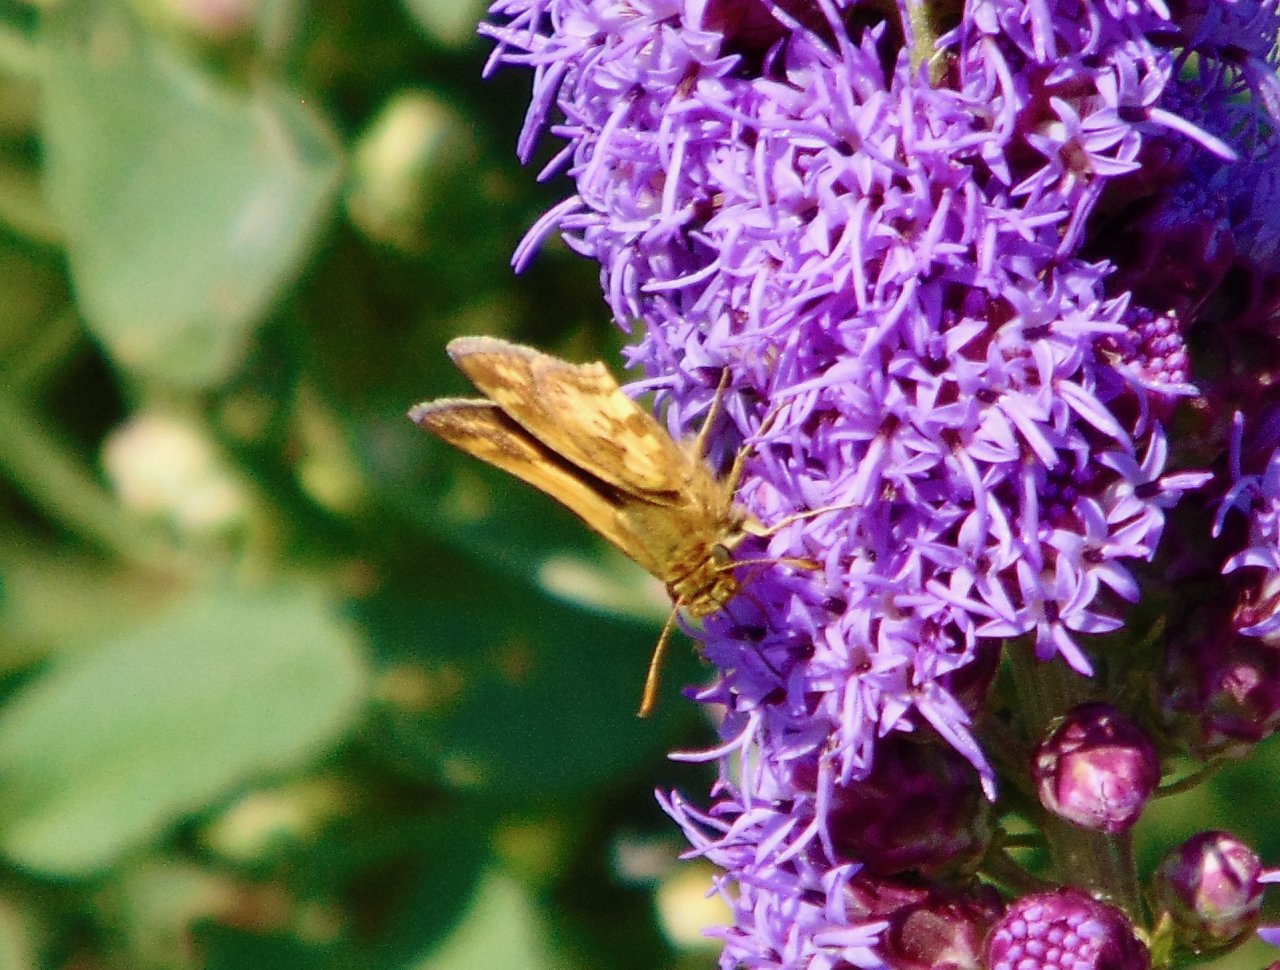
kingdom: Animalia
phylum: Arthropoda
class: Insecta
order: Lepidoptera
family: Hesperiidae
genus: Polites
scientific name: Polites coras
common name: Peck's Skipper
